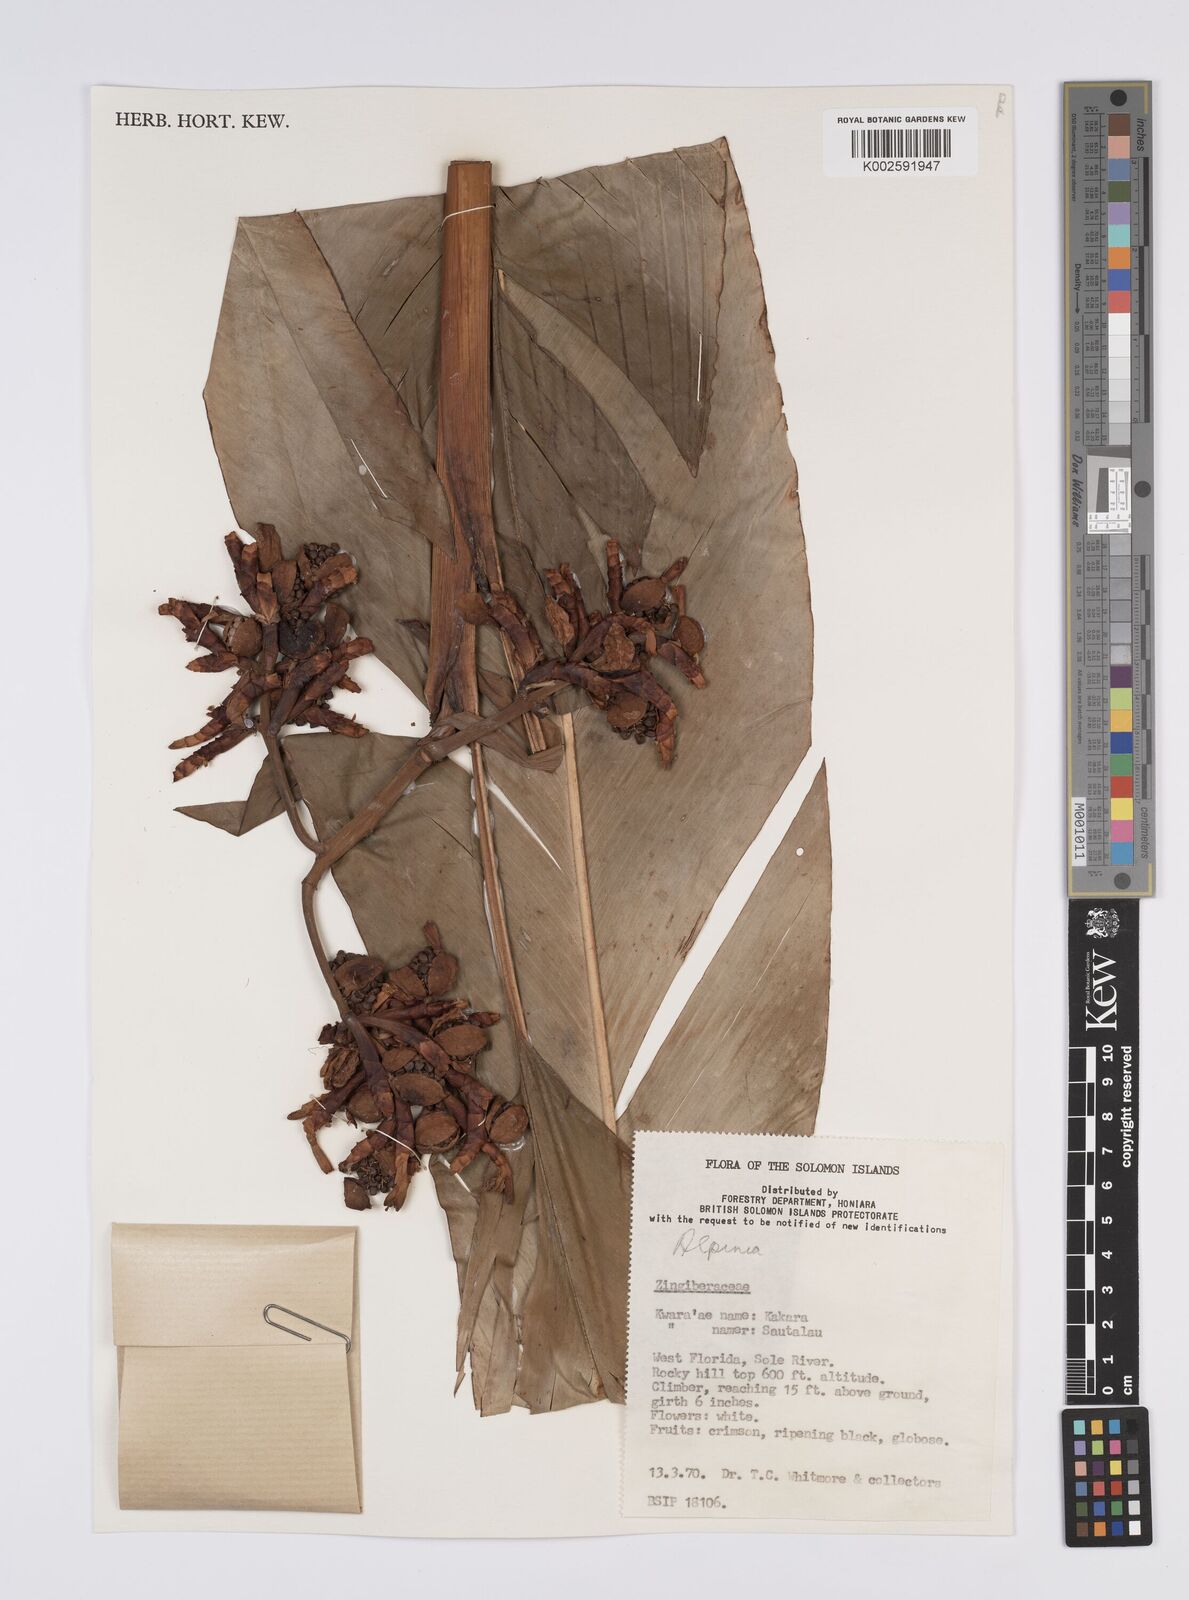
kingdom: Plantae
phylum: Tracheophyta
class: Liliopsida
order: Zingiberales
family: Zingiberaceae
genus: Alpinia
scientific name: Alpinia
